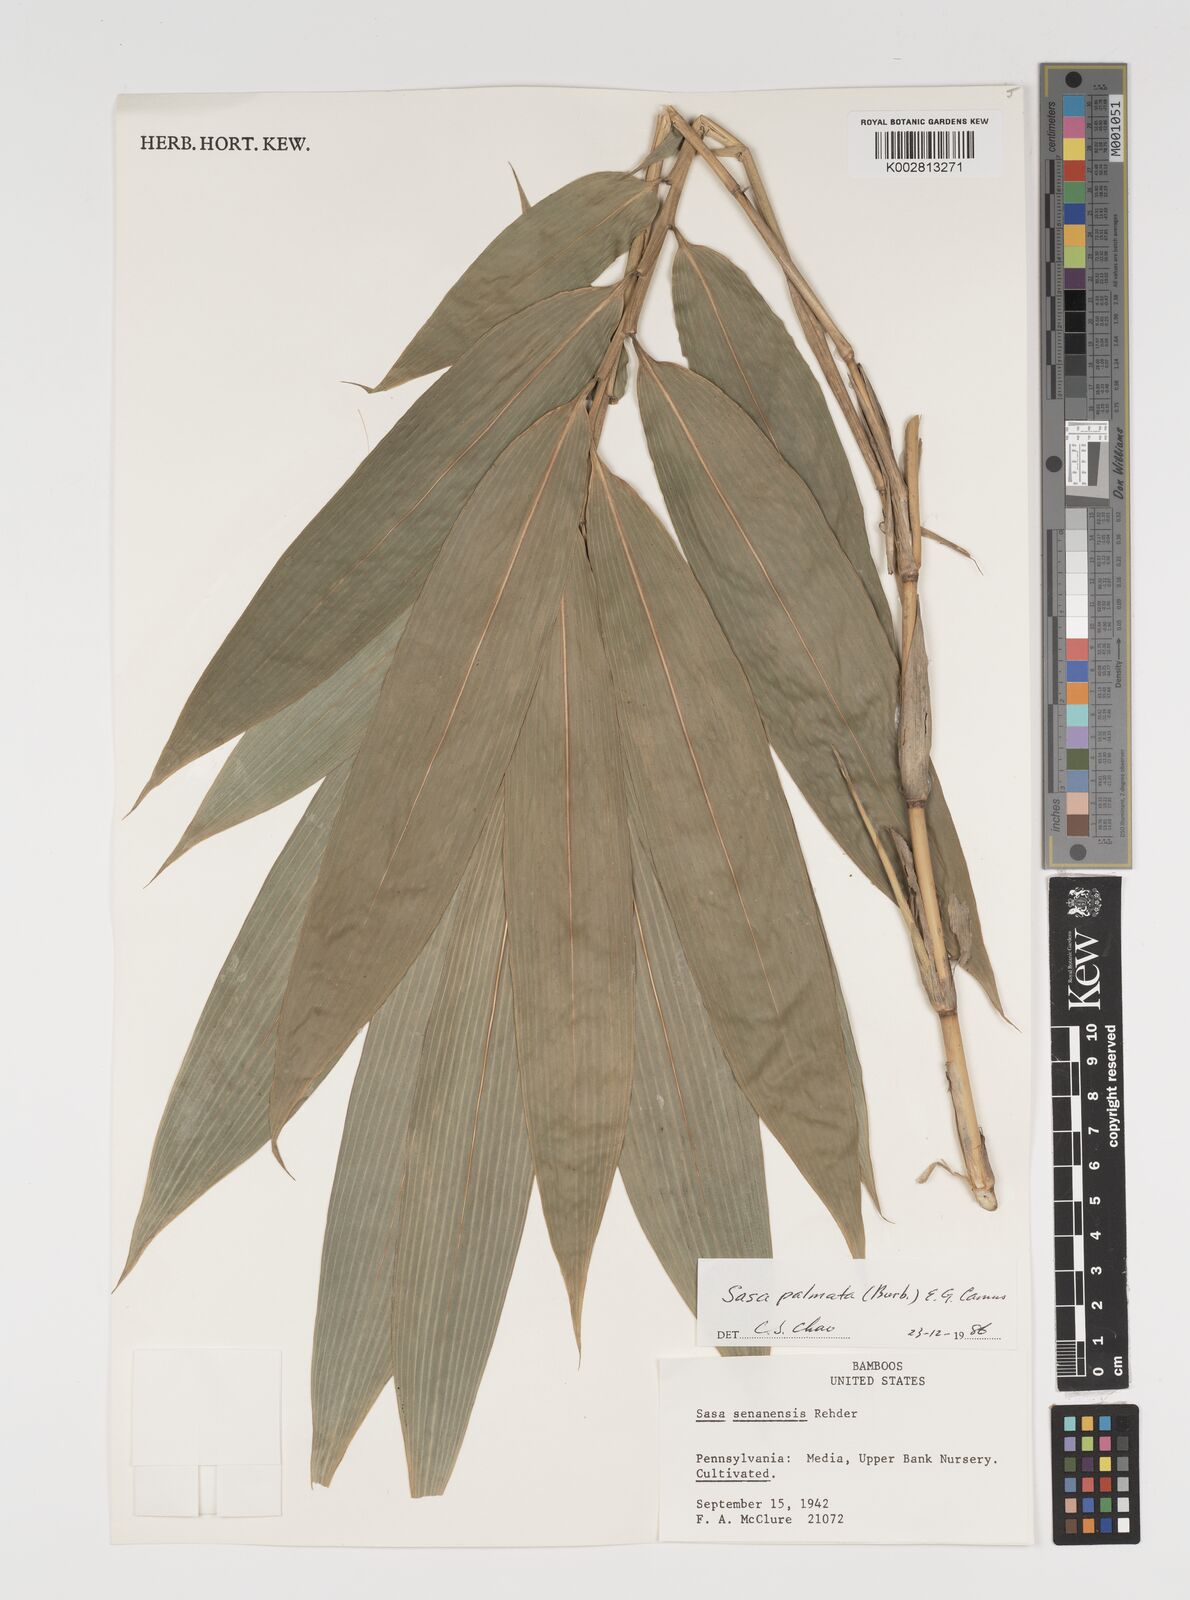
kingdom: Plantae
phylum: Tracheophyta
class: Liliopsida
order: Poales
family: Poaceae
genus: Sasa
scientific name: Sasa senanensis
